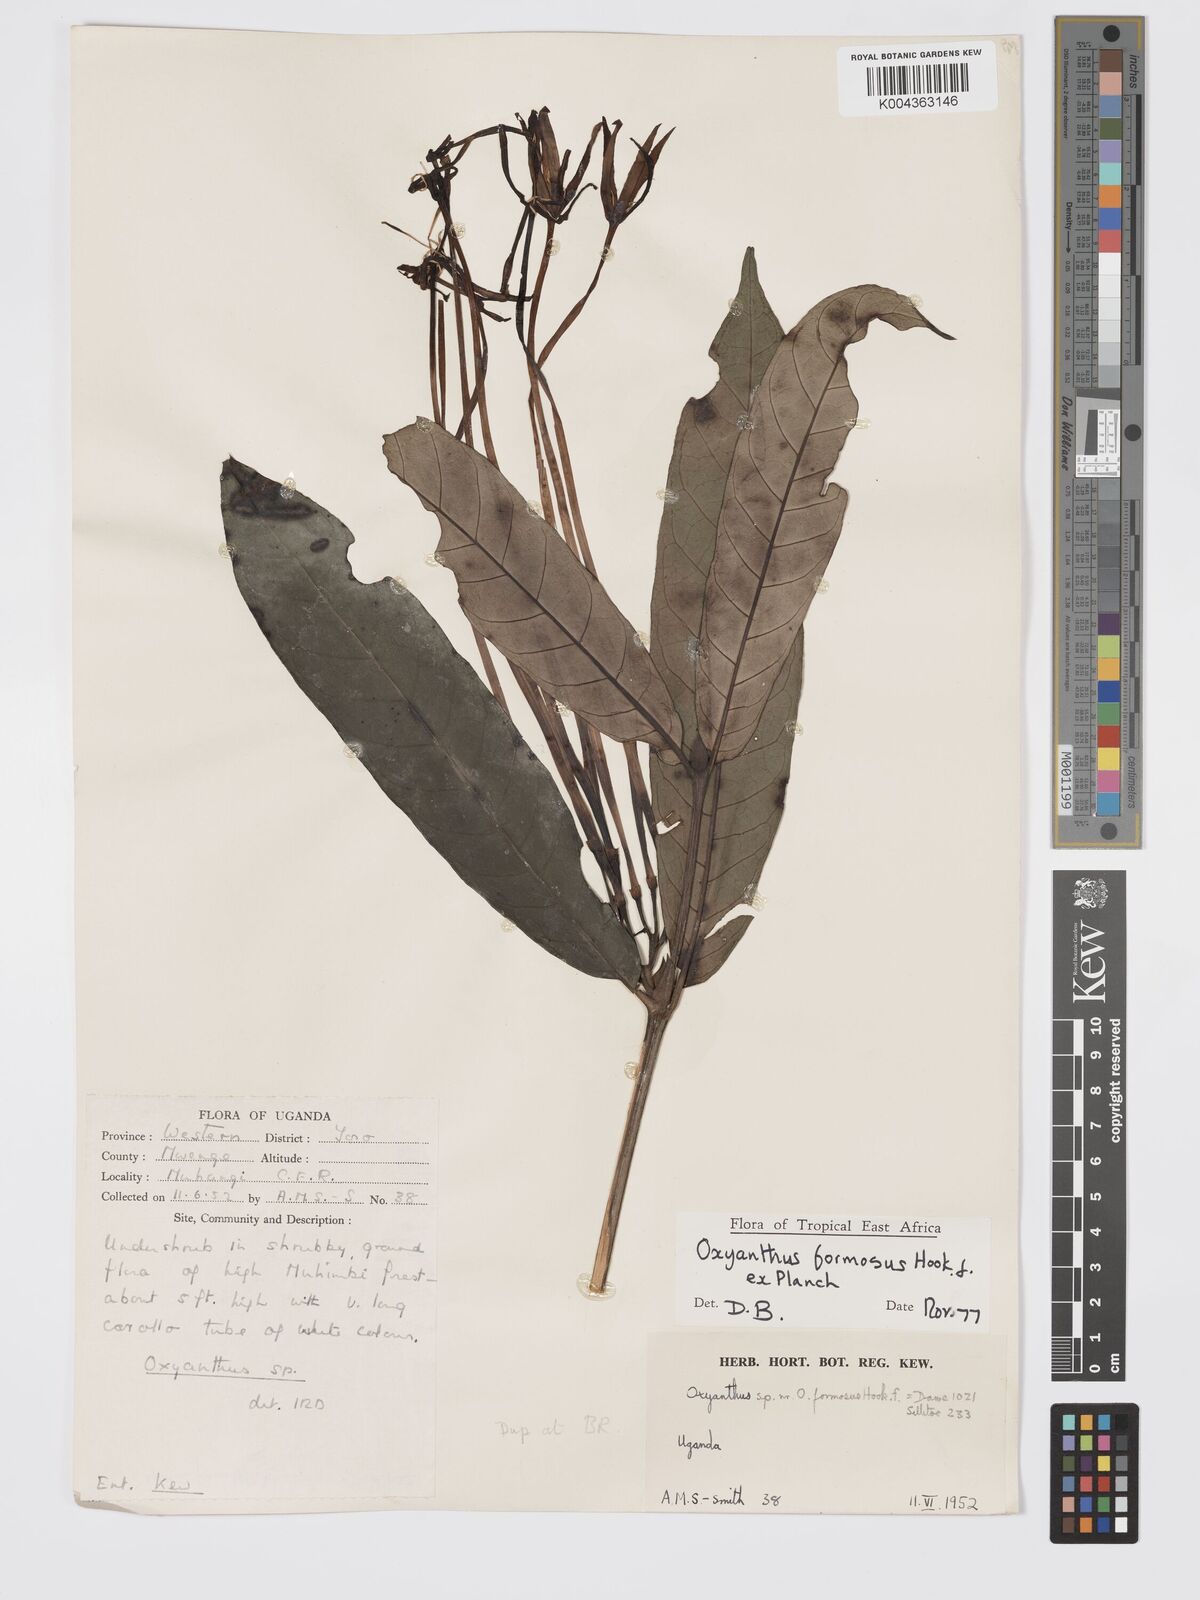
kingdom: Plantae
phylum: Tracheophyta
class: Magnoliopsida
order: Gentianales
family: Rubiaceae
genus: Oxyanthus
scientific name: Oxyanthus formosus
